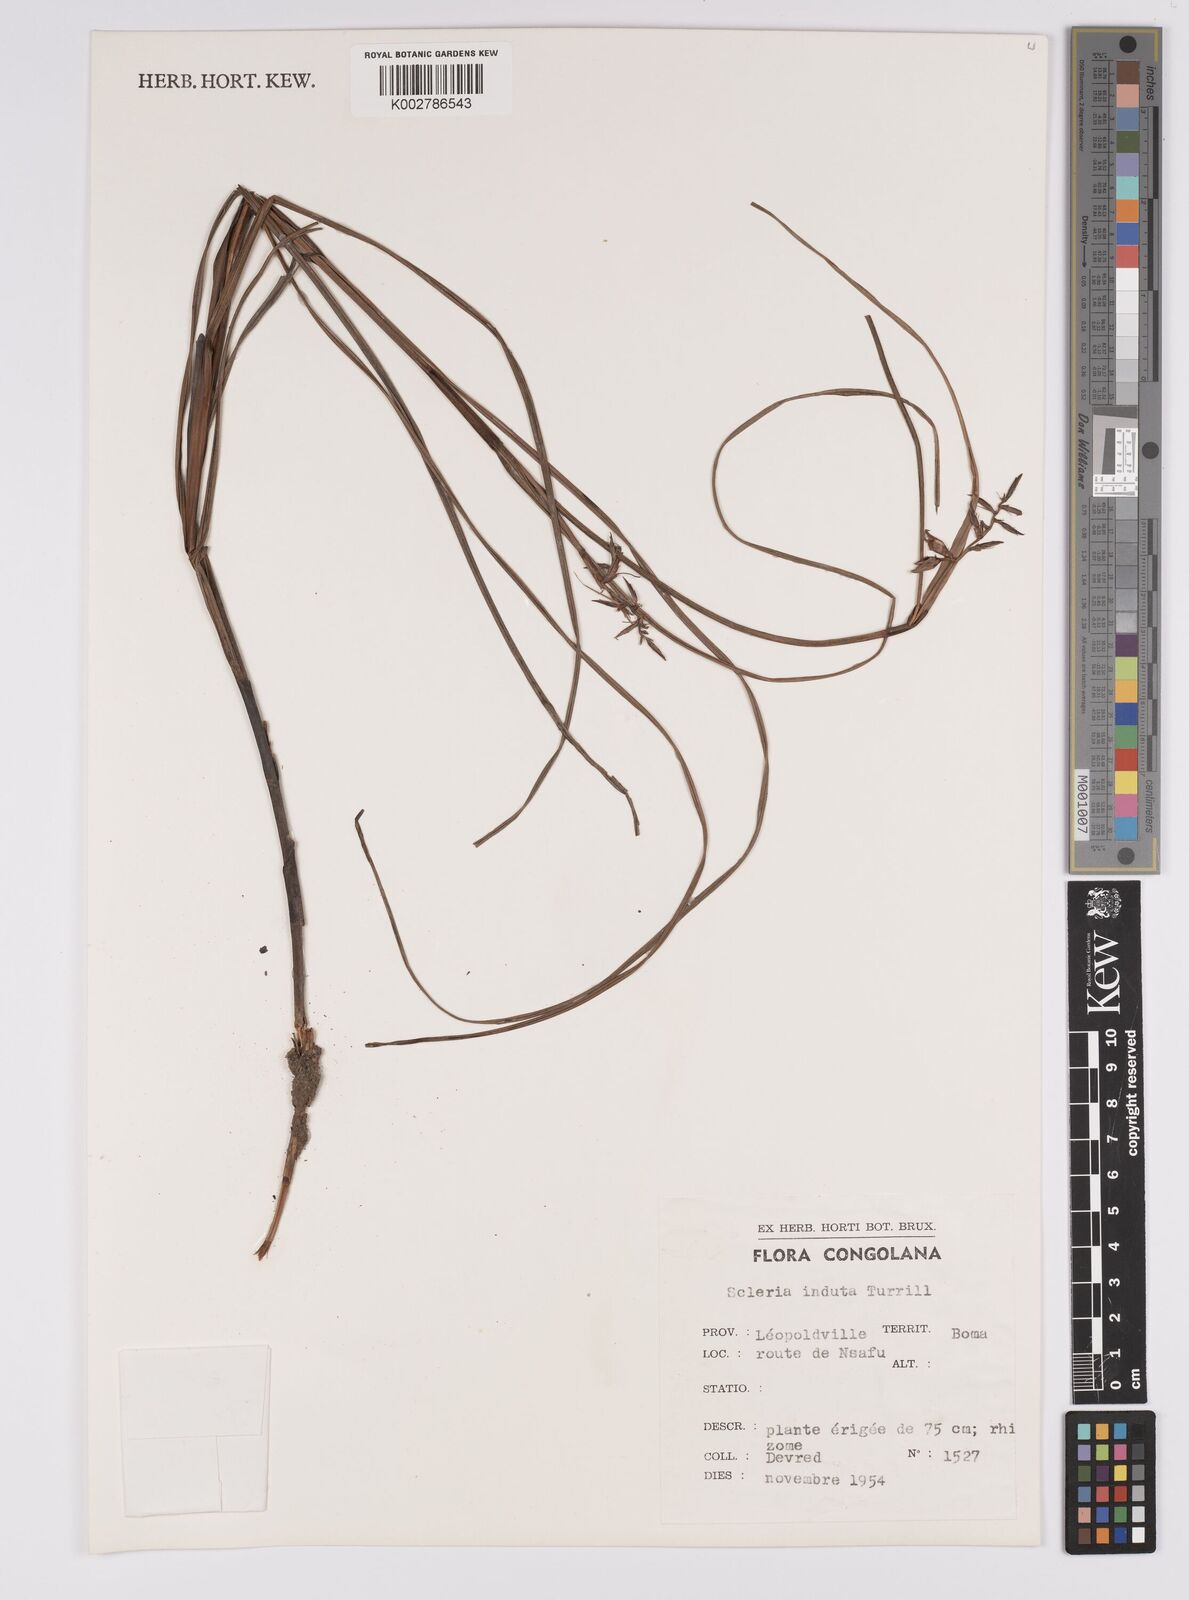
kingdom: Plantae
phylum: Tracheophyta
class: Liliopsida
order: Poales
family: Cyperaceae
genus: Scleria
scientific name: Scleria induta
